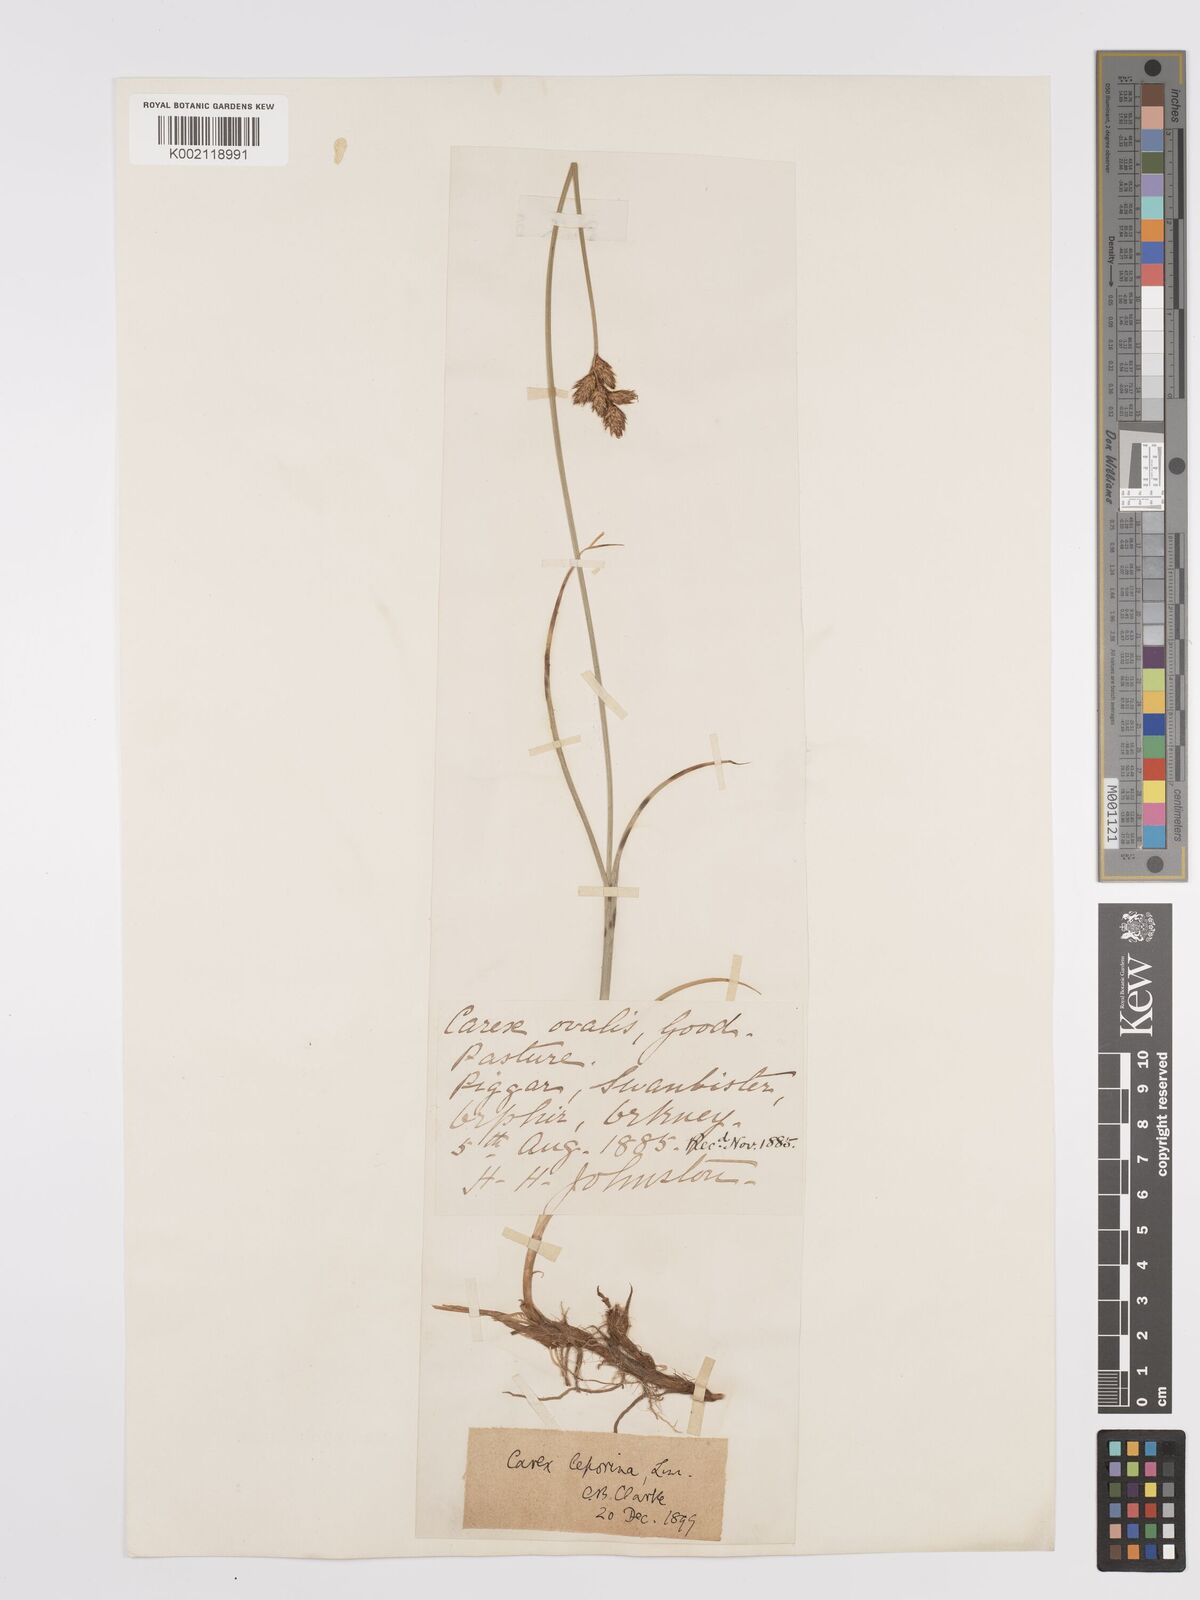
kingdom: Plantae
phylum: Tracheophyta
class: Liliopsida
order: Poales
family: Cyperaceae
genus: Carex
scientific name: Carex leporina
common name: Oval sedge
